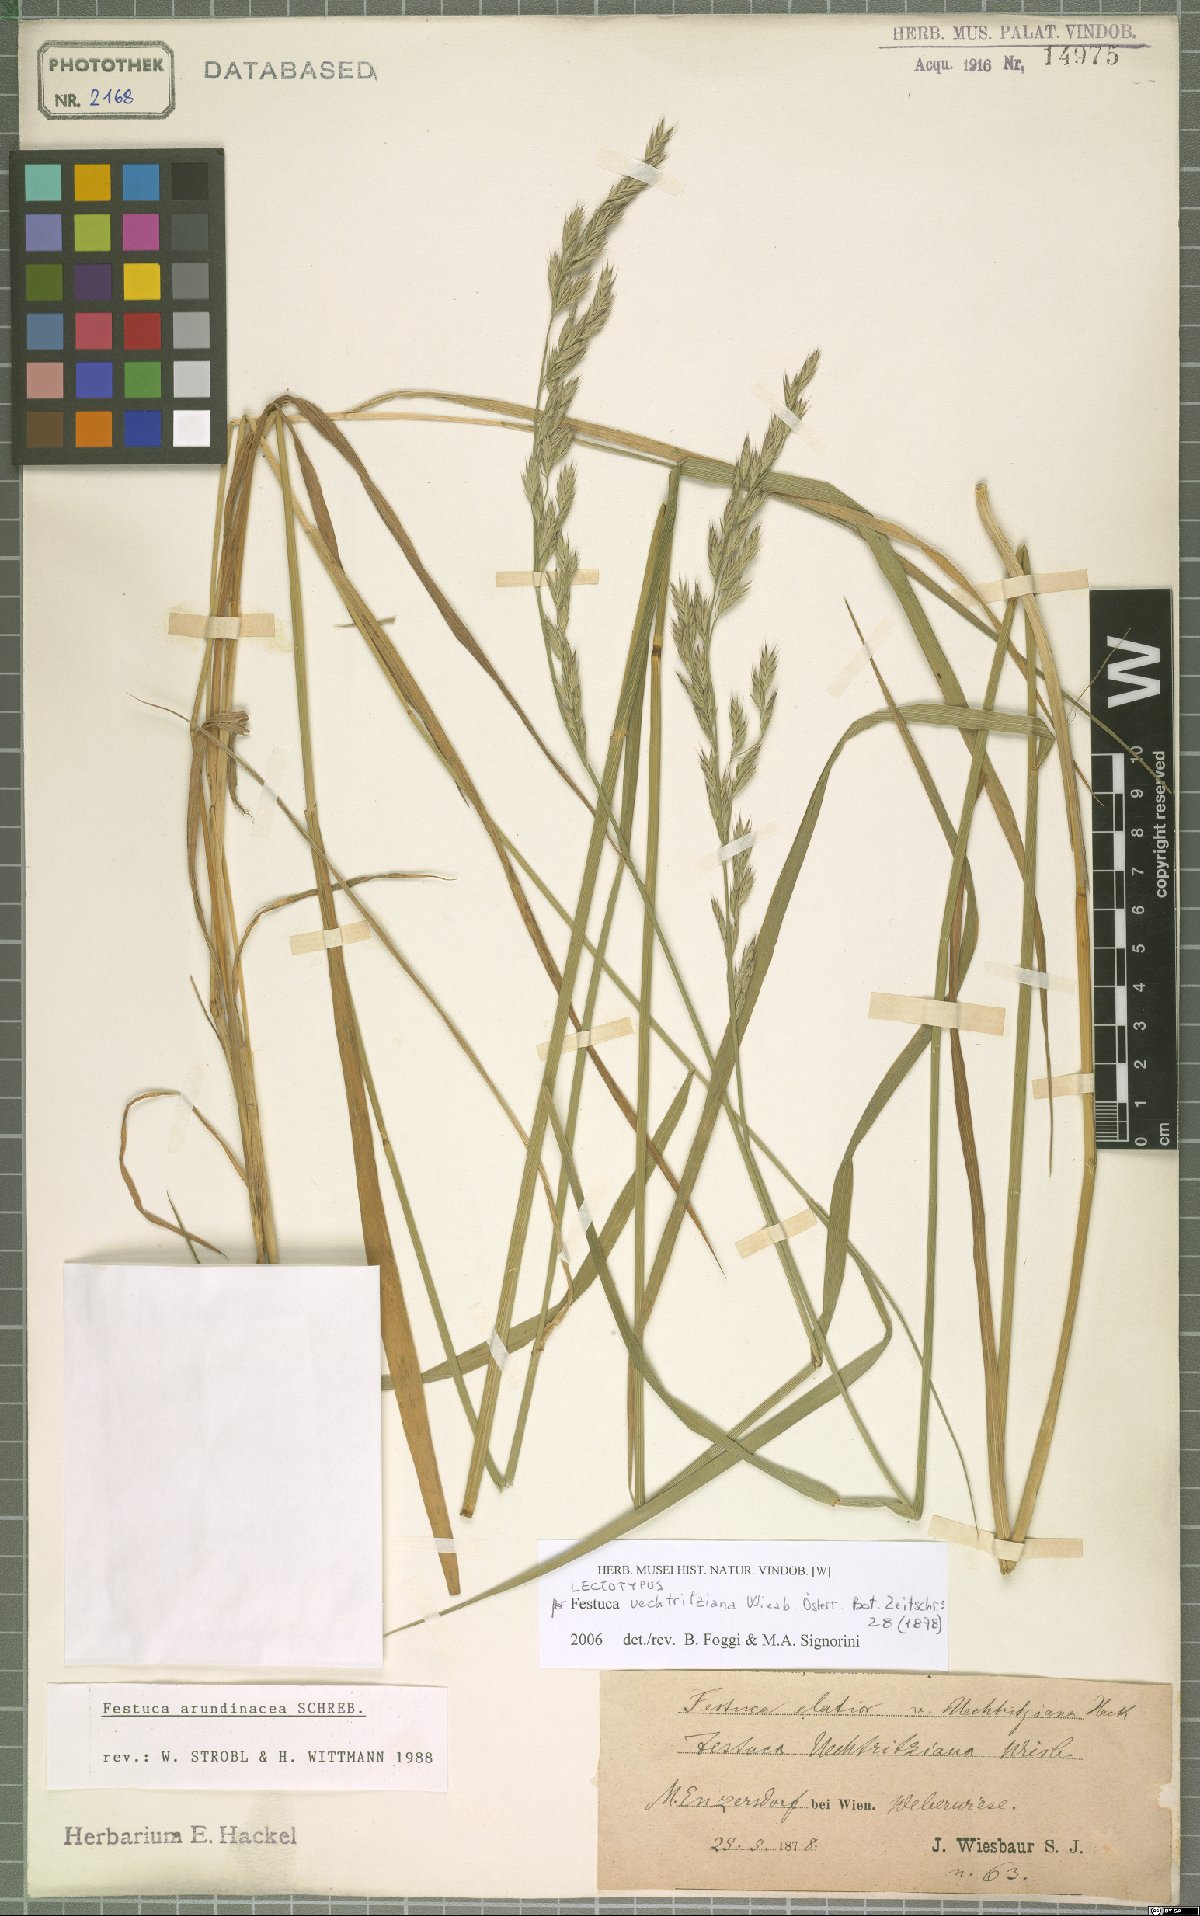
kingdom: Plantae
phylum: Tracheophyta
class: Liliopsida
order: Poales
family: Poaceae
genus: Lolium
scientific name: Lolium arundinaceum
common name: Reed fescue
